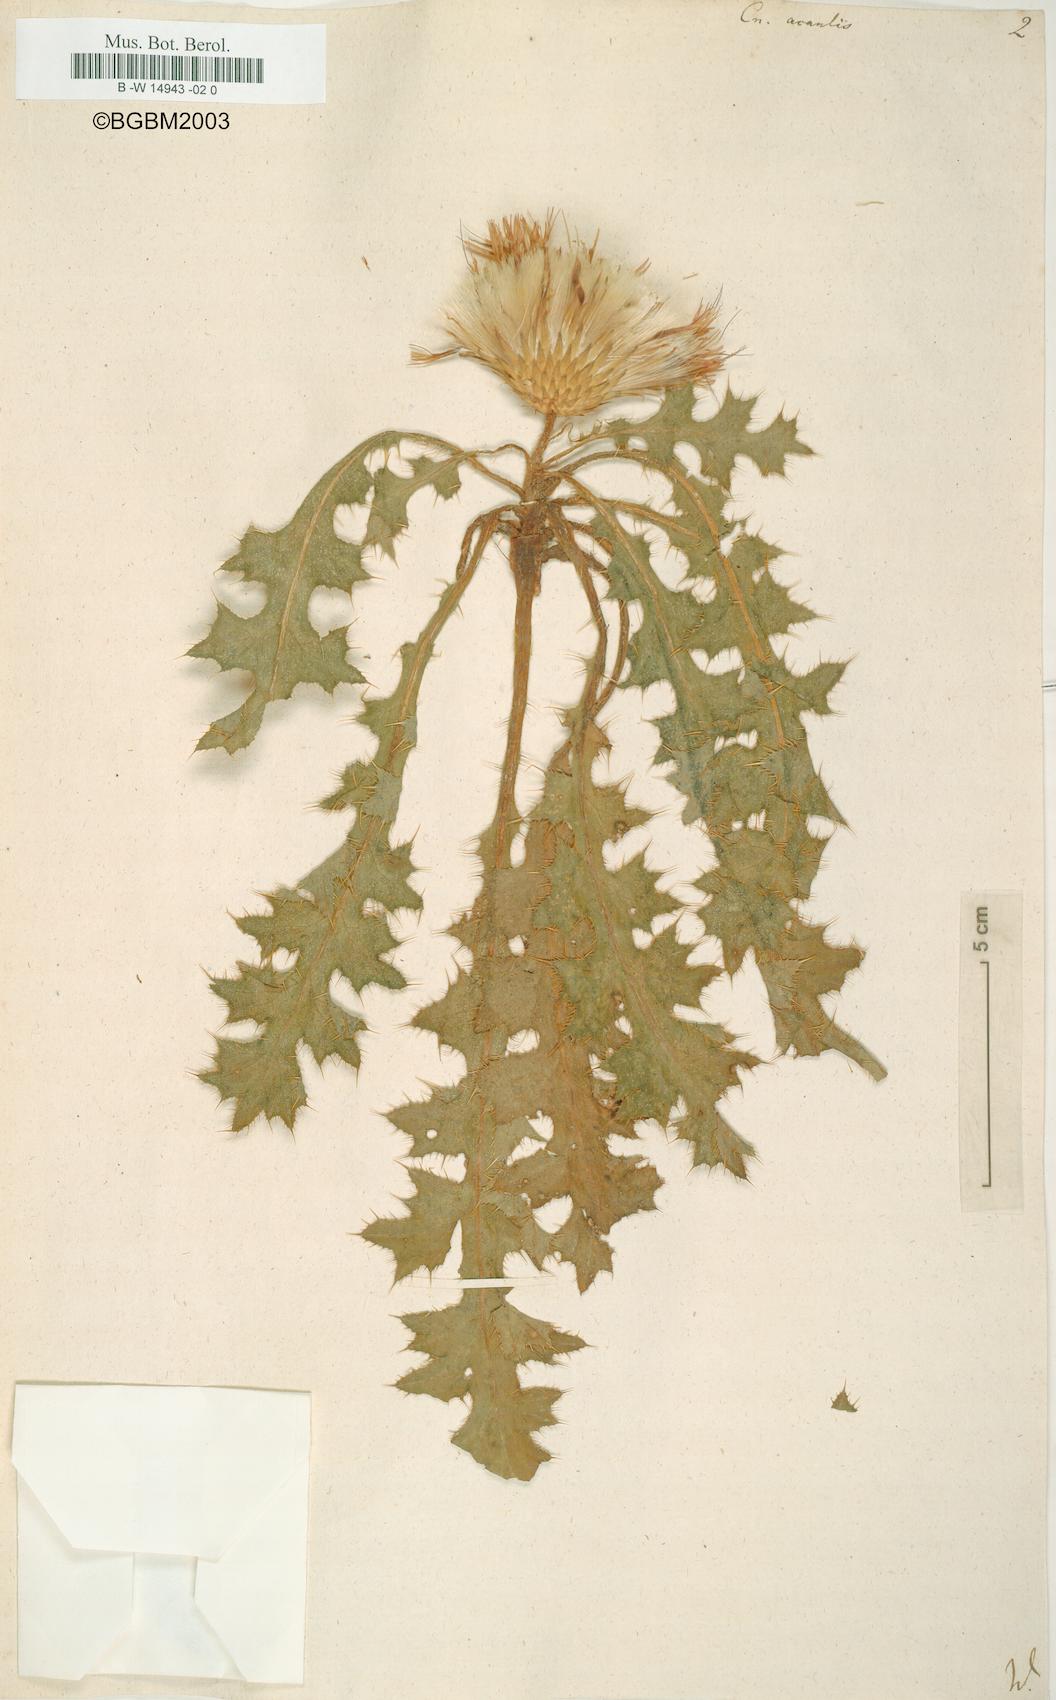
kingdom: Plantae
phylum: Tracheophyta
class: Magnoliopsida
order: Asterales
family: Asteraceae
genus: Cirsium
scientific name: Cirsium acaule
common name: Dwarf thistle
